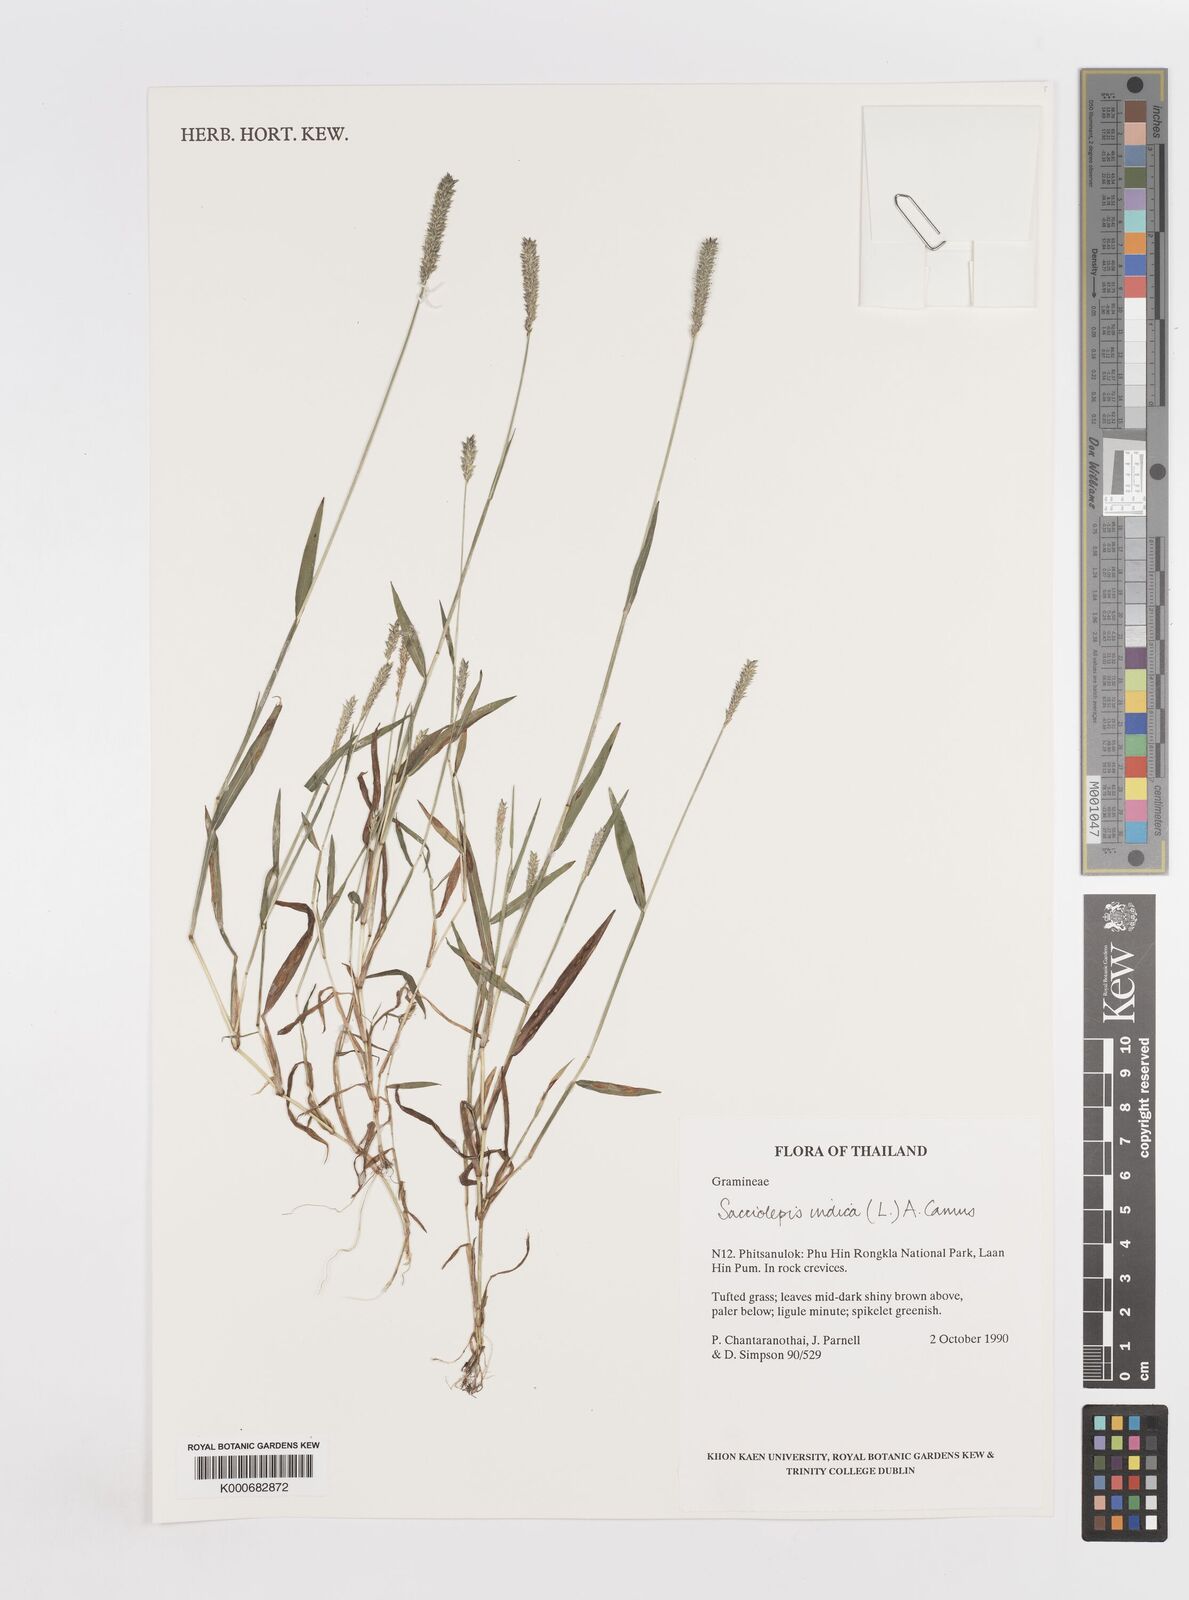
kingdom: Plantae
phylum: Tracheophyta
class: Liliopsida
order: Poales
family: Poaceae
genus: Sacciolepis
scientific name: Sacciolepis indica
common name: Glenwoodgrass
